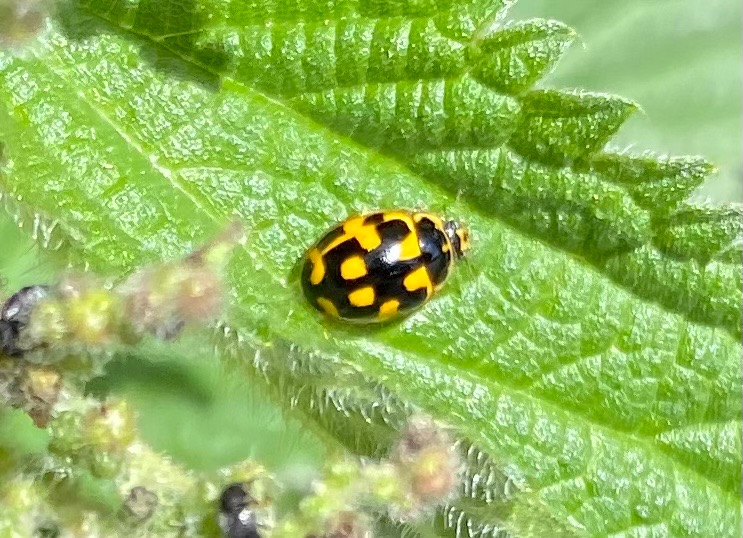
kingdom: Animalia
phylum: Arthropoda
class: Insecta
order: Coleoptera
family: Coccinellidae
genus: Propylaea
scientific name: Propylaea quatuordecimpunctata
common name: Skakbræt
